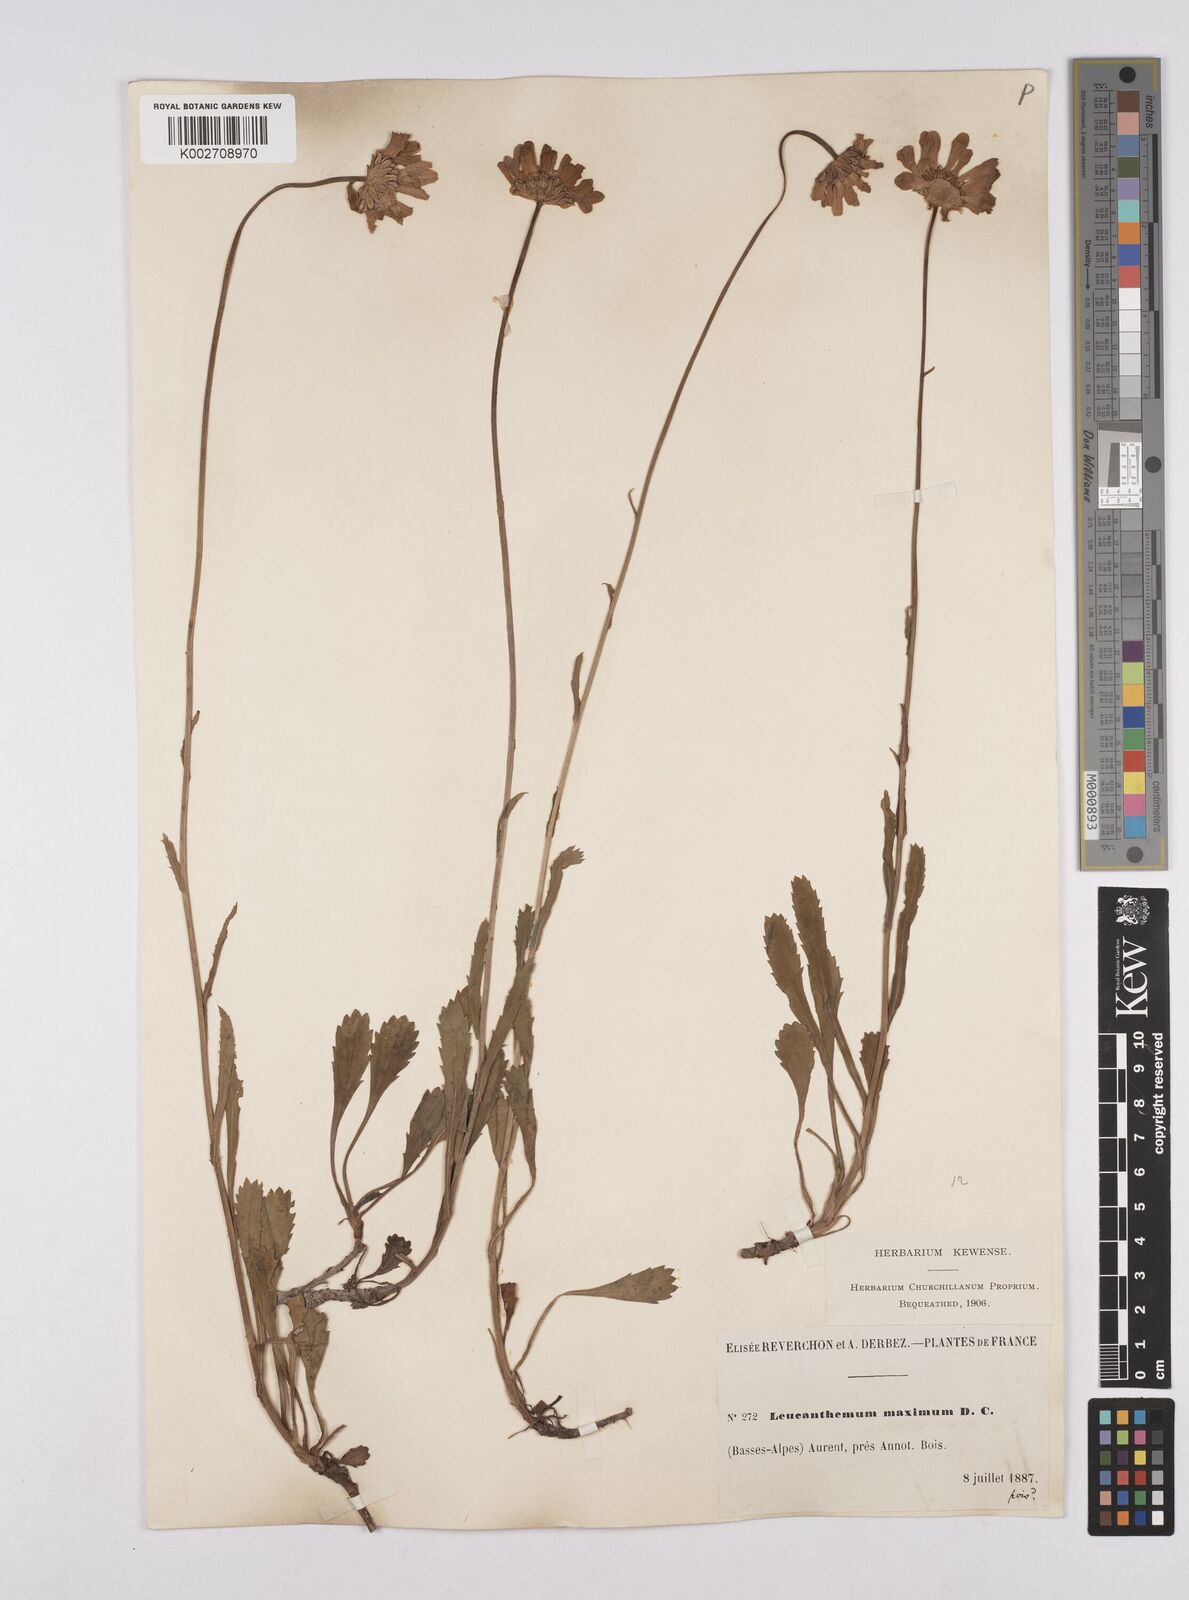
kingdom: Plantae
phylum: Tracheophyta
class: Magnoliopsida
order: Asterales
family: Asteraceae
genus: Leucanthemum
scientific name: Leucanthemum vulgare
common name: Oxeye daisy
